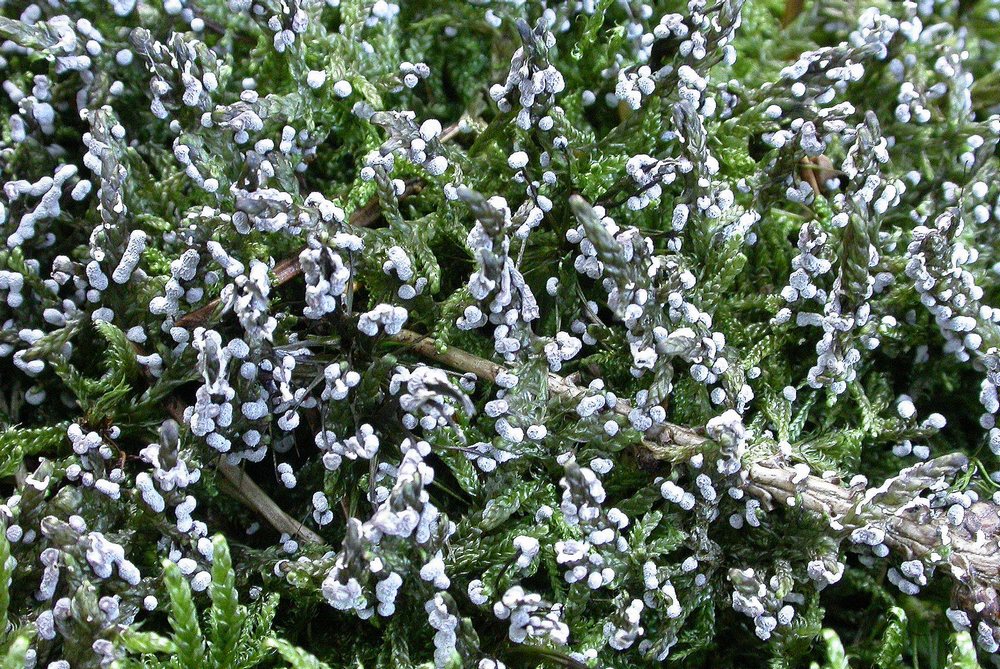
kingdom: Protozoa
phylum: Mycetozoa
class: Myxomycetes
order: Physarales
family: Didymiaceae
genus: Didymium
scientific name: Didymium melanospermum
